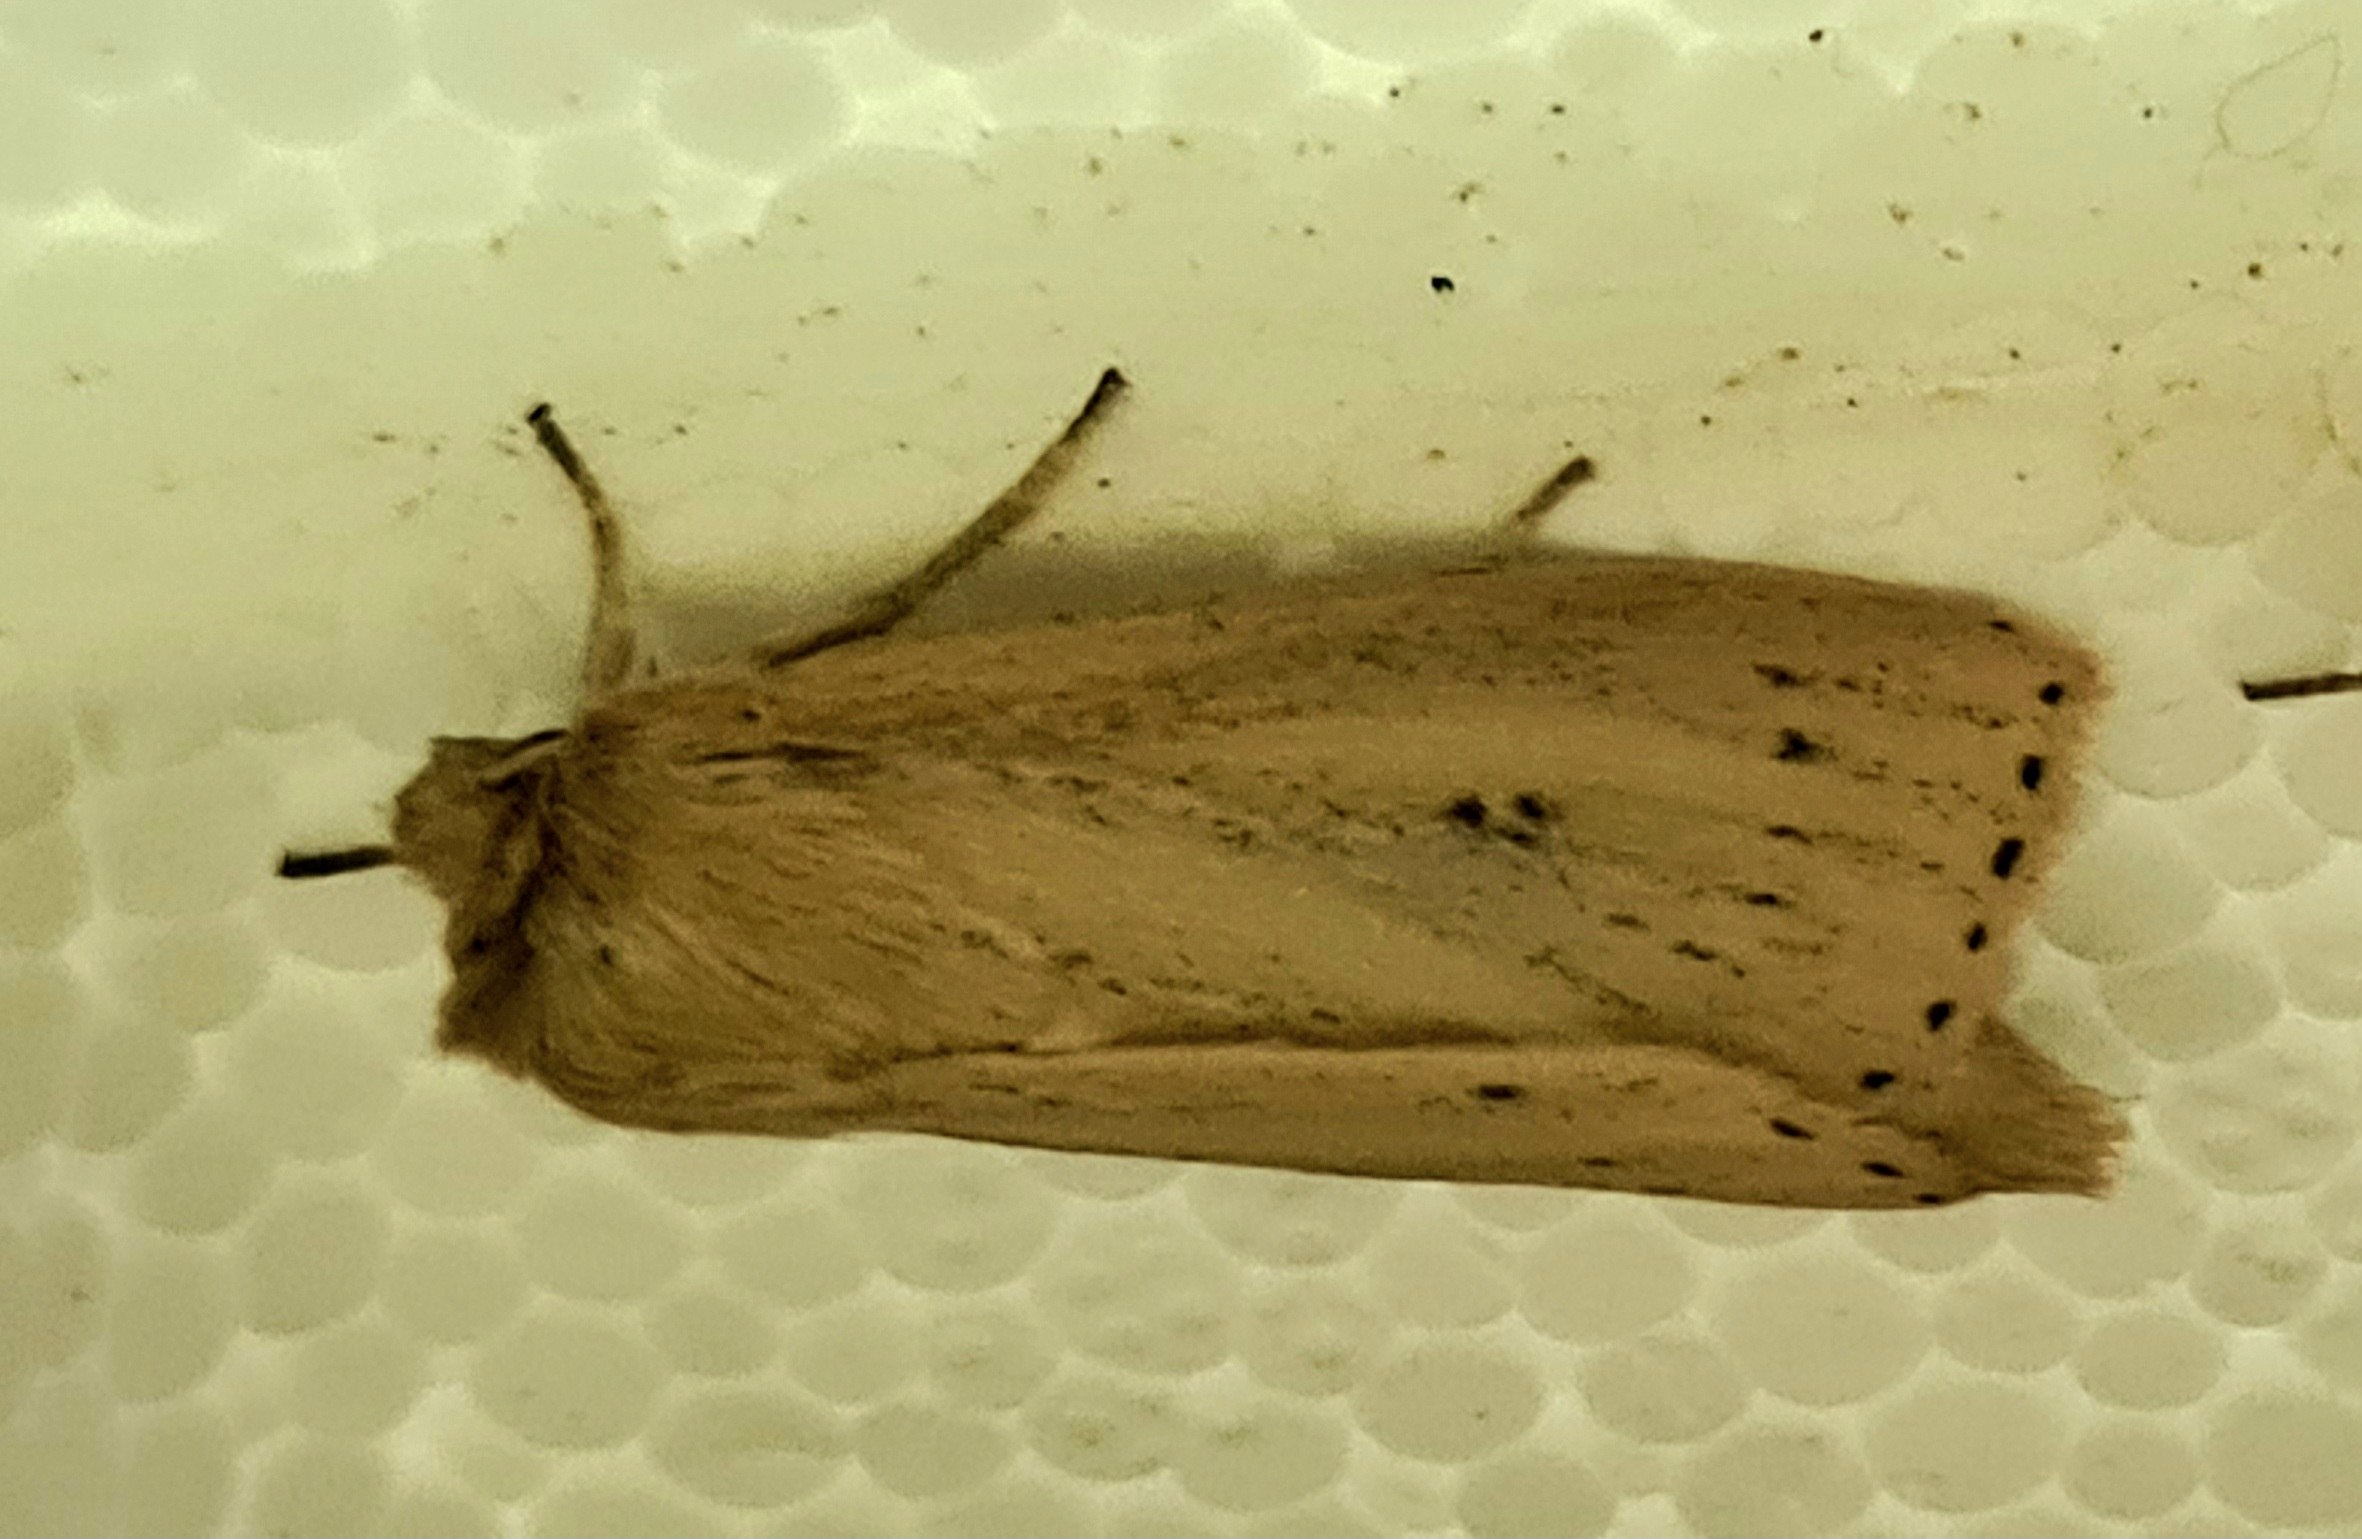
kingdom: Animalia
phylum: Arthropoda
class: Insecta
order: Lepidoptera
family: Noctuidae
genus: Globia
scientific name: Globia sparganii
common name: Sømprikket stængelborer
